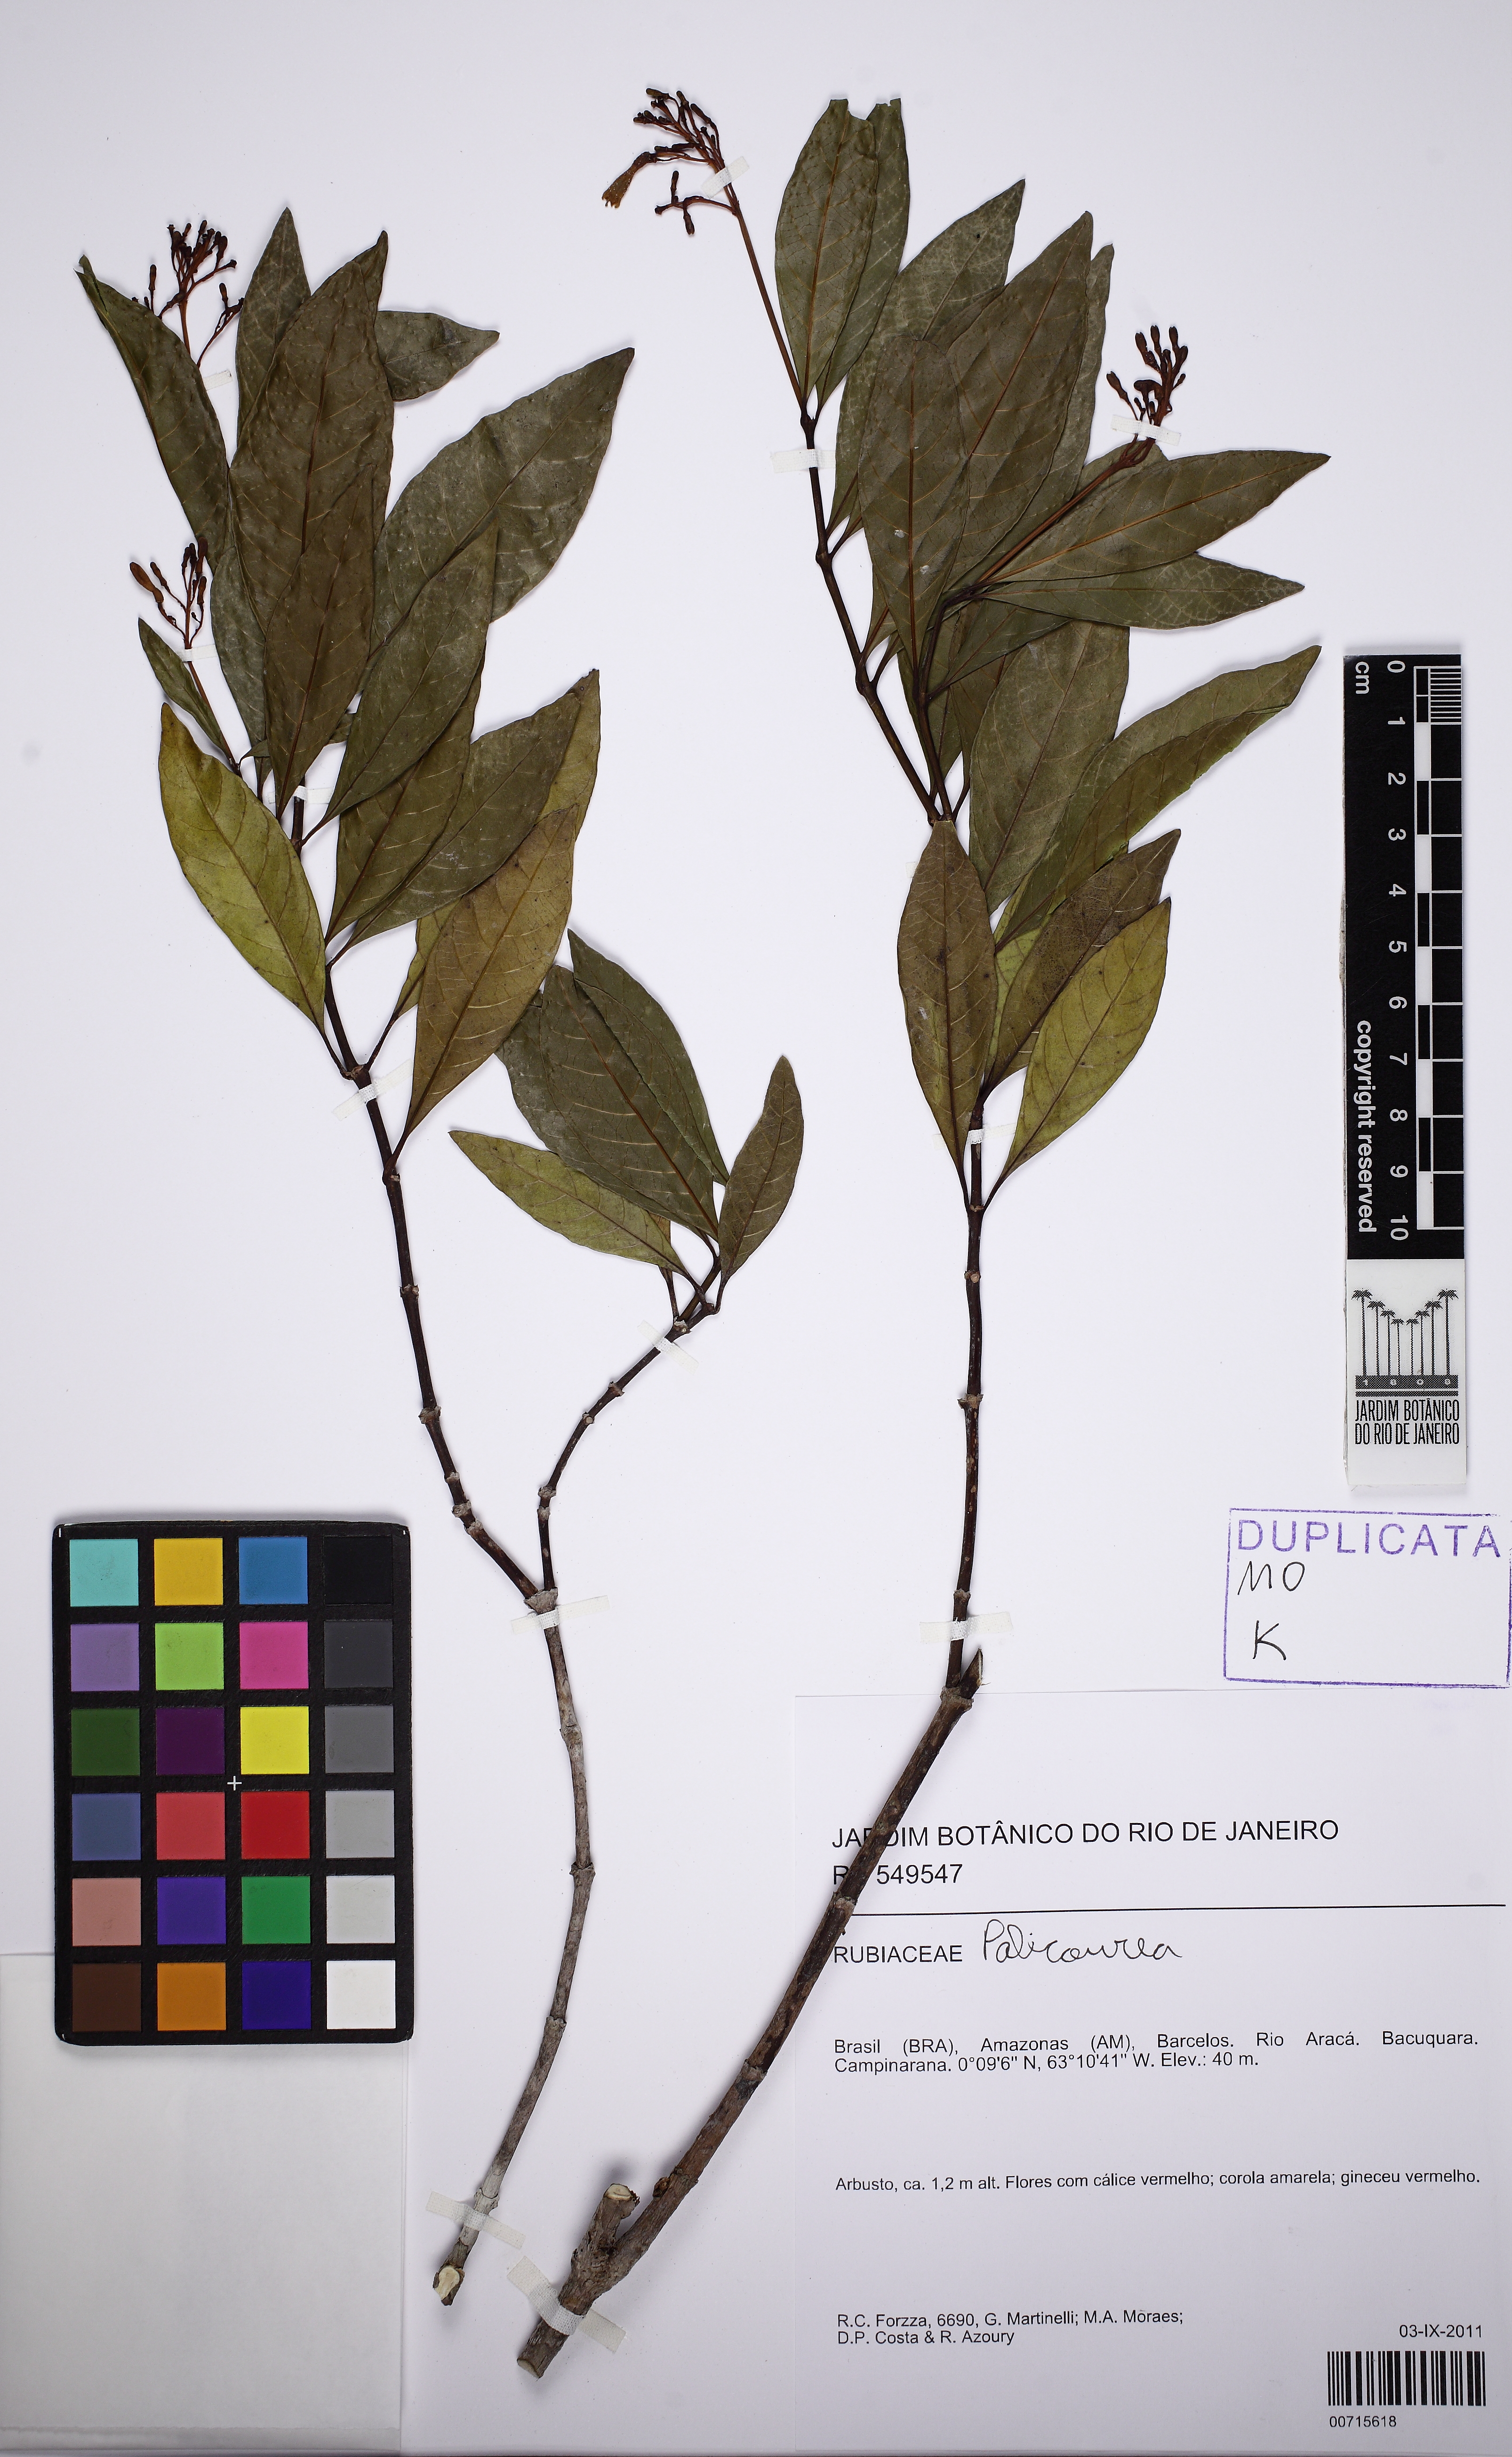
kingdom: Plantae
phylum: Tracheophyta
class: Magnoliopsida
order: Gentianales
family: Rubiaceae
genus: Palicourea
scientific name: Palicourea
